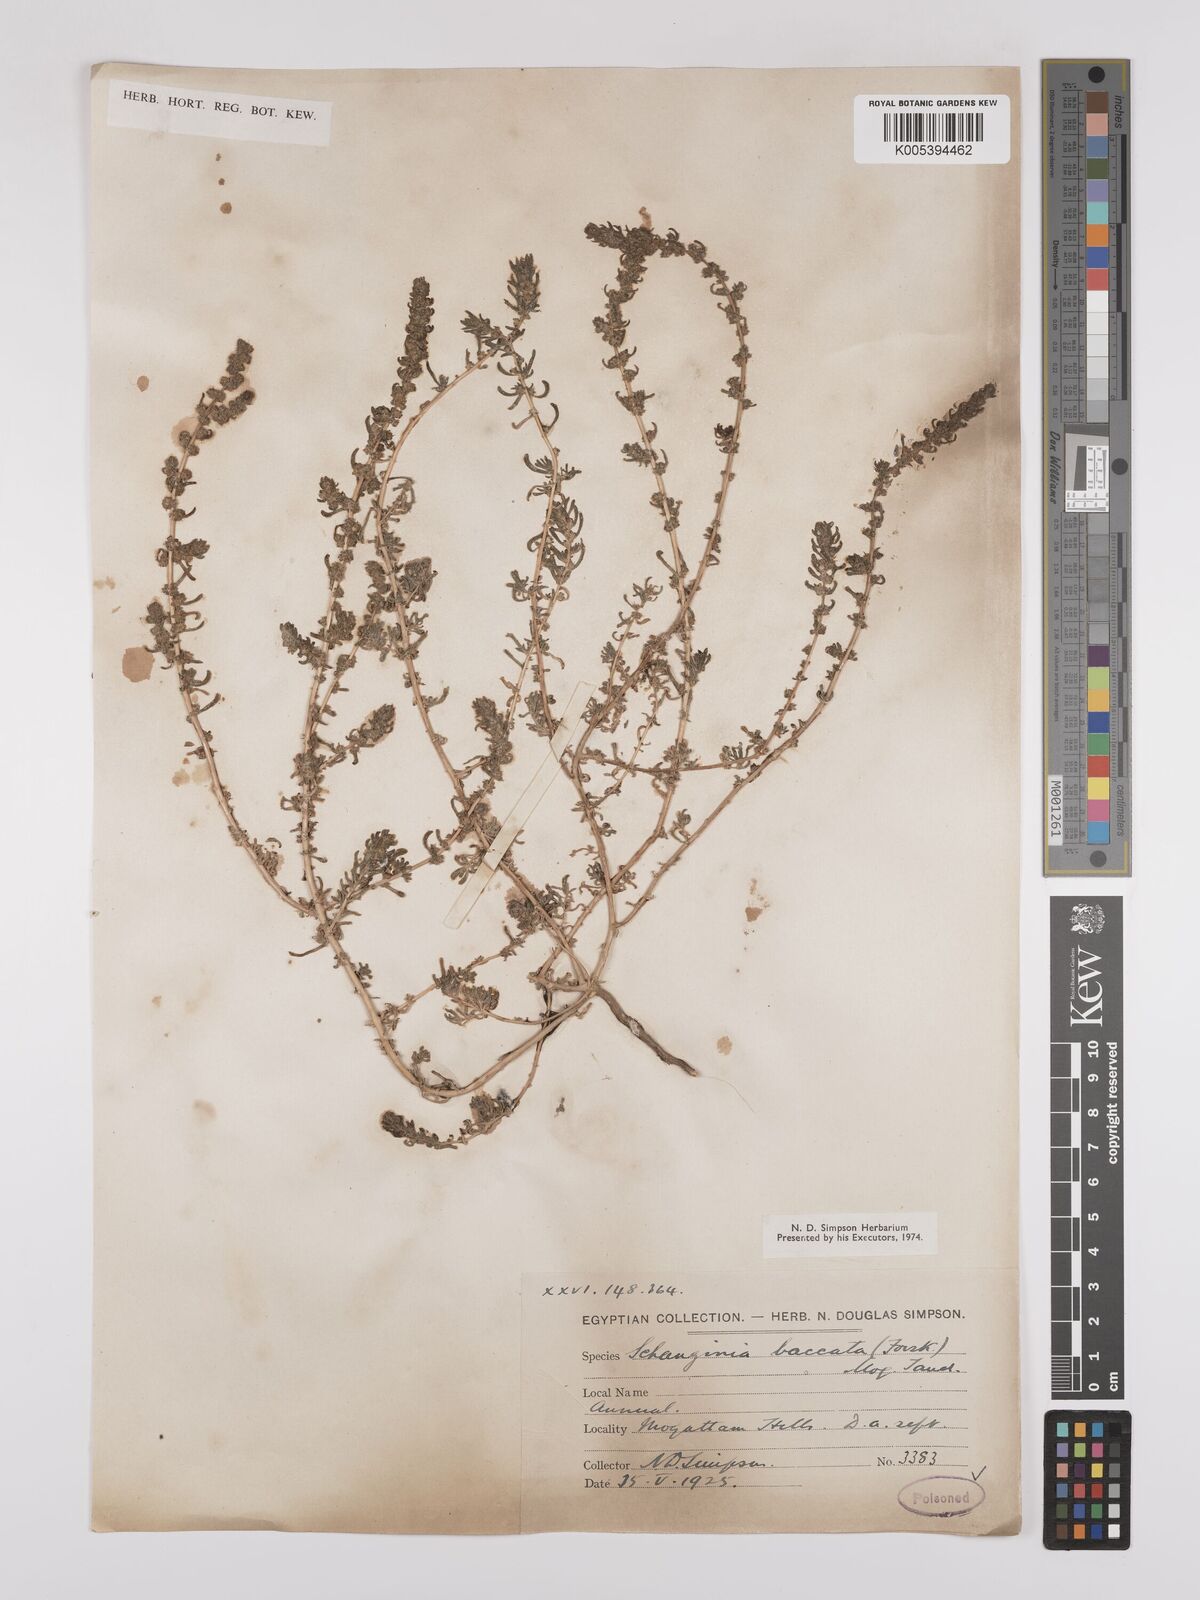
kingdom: Plantae
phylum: Tracheophyta
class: Magnoliopsida
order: Caryophyllales
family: Amaranthaceae
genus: Suaeda
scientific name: Suaeda aegyptiaca
